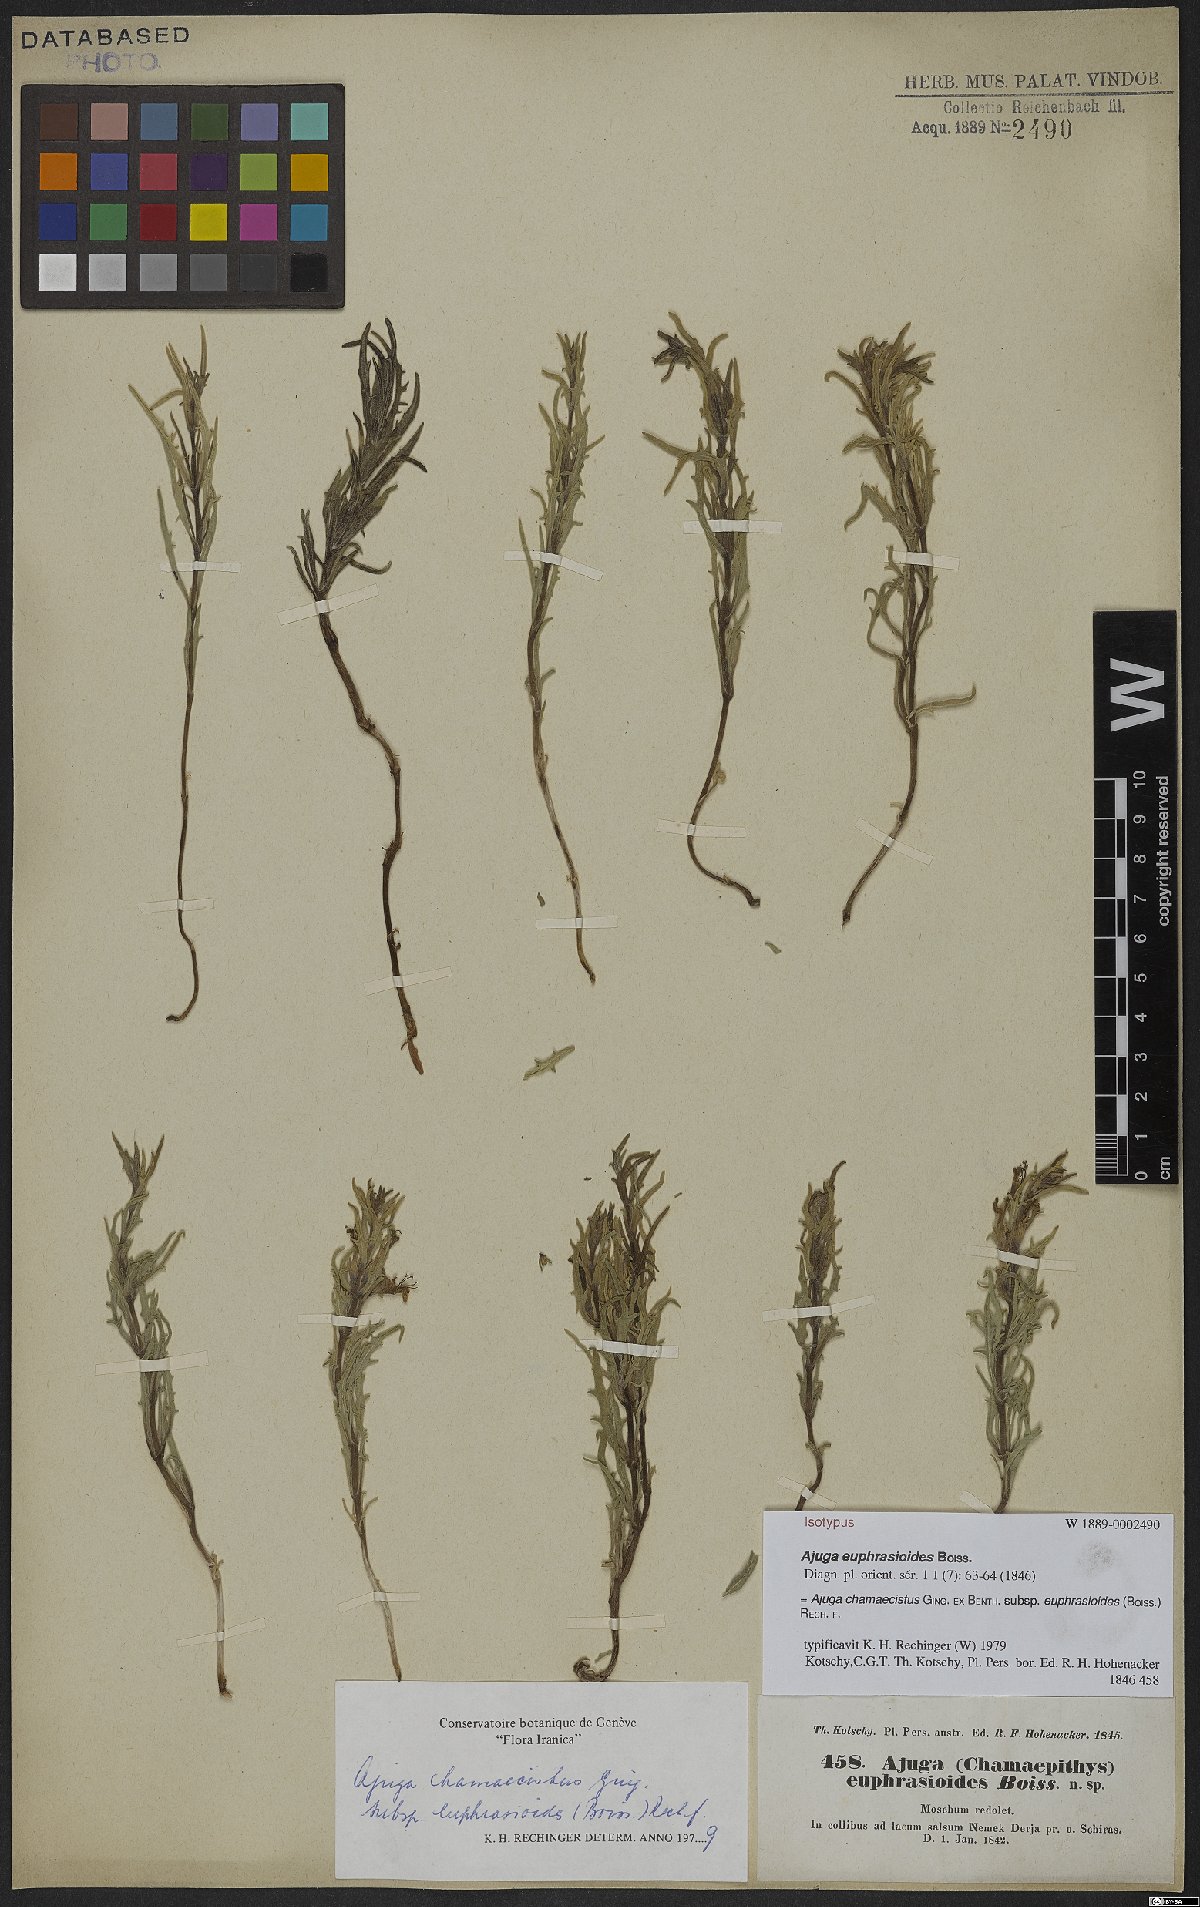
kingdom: Plantae
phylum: Tracheophyta
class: Magnoliopsida
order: Lamiales
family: Lamiaceae
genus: Ajuga
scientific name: Ajuga chamaecistus
